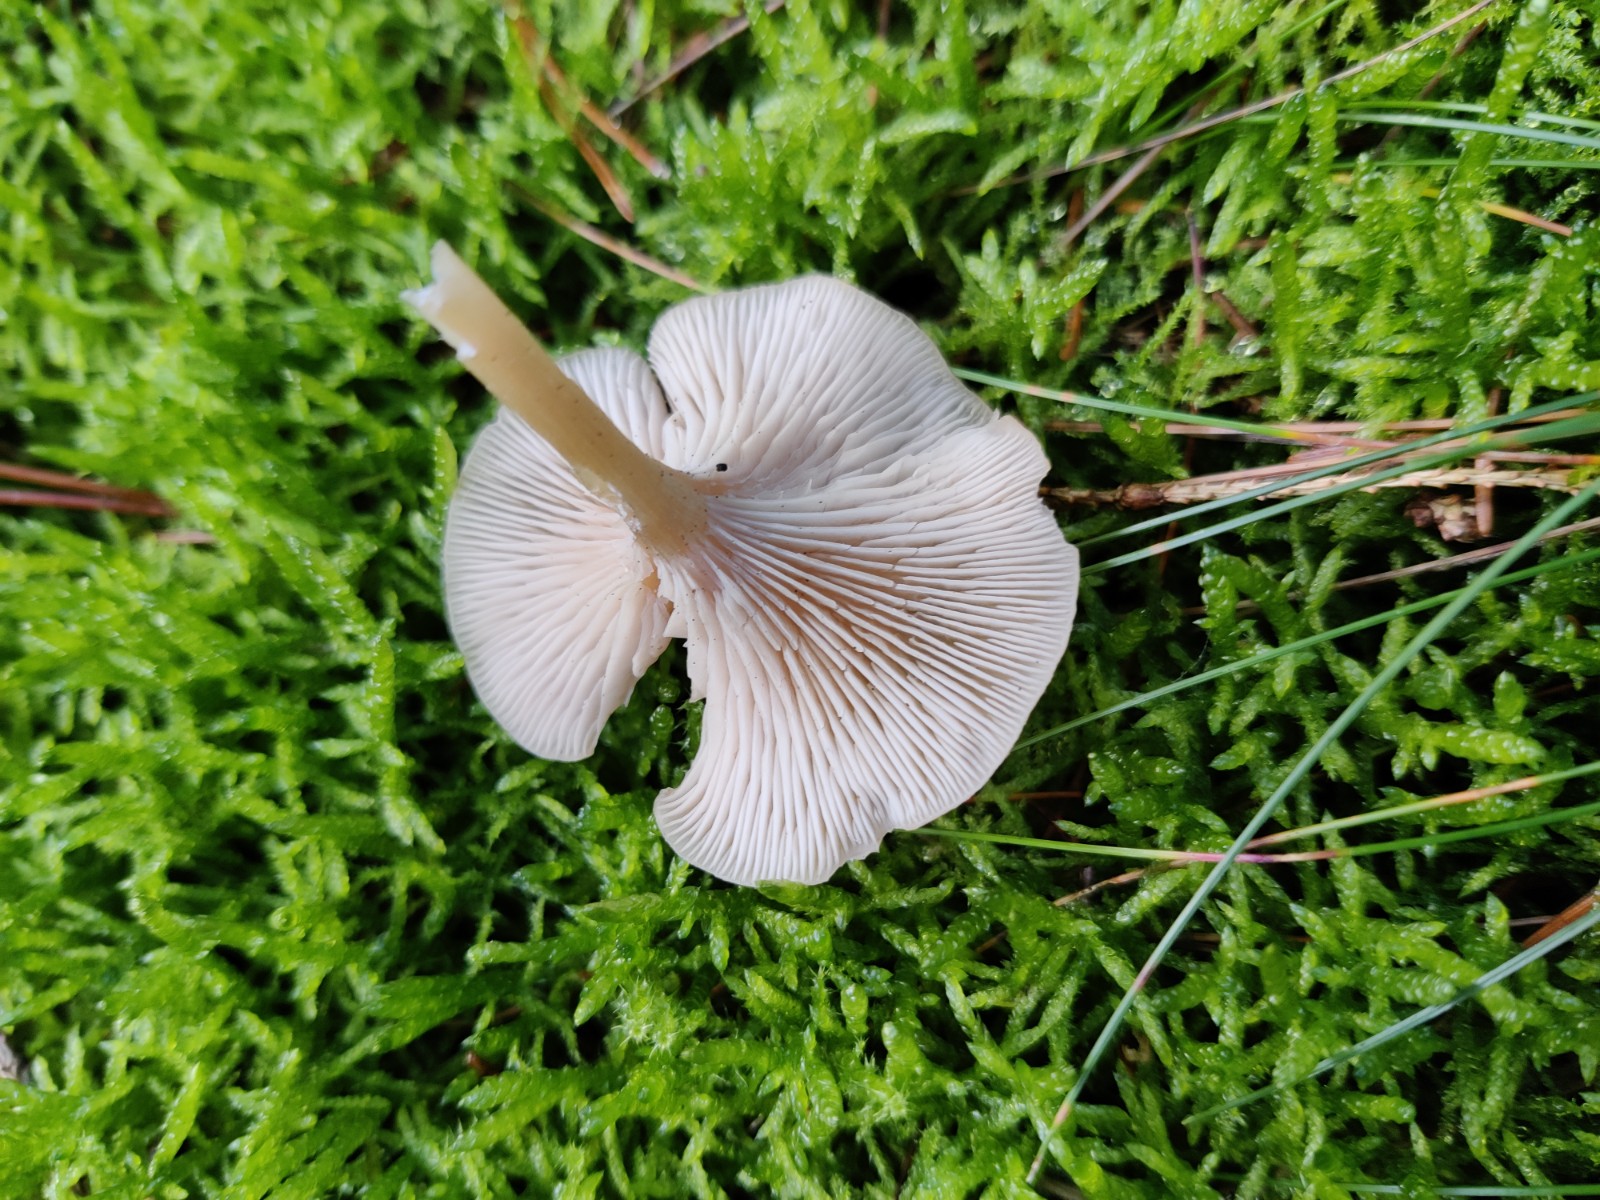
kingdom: Fungi
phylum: Basidiomycota
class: Agaricomycetes
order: Agaricales
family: Tricholomataceae
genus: Clitocybe
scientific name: Clitocybe fragrans
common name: vellugtende tragthat
